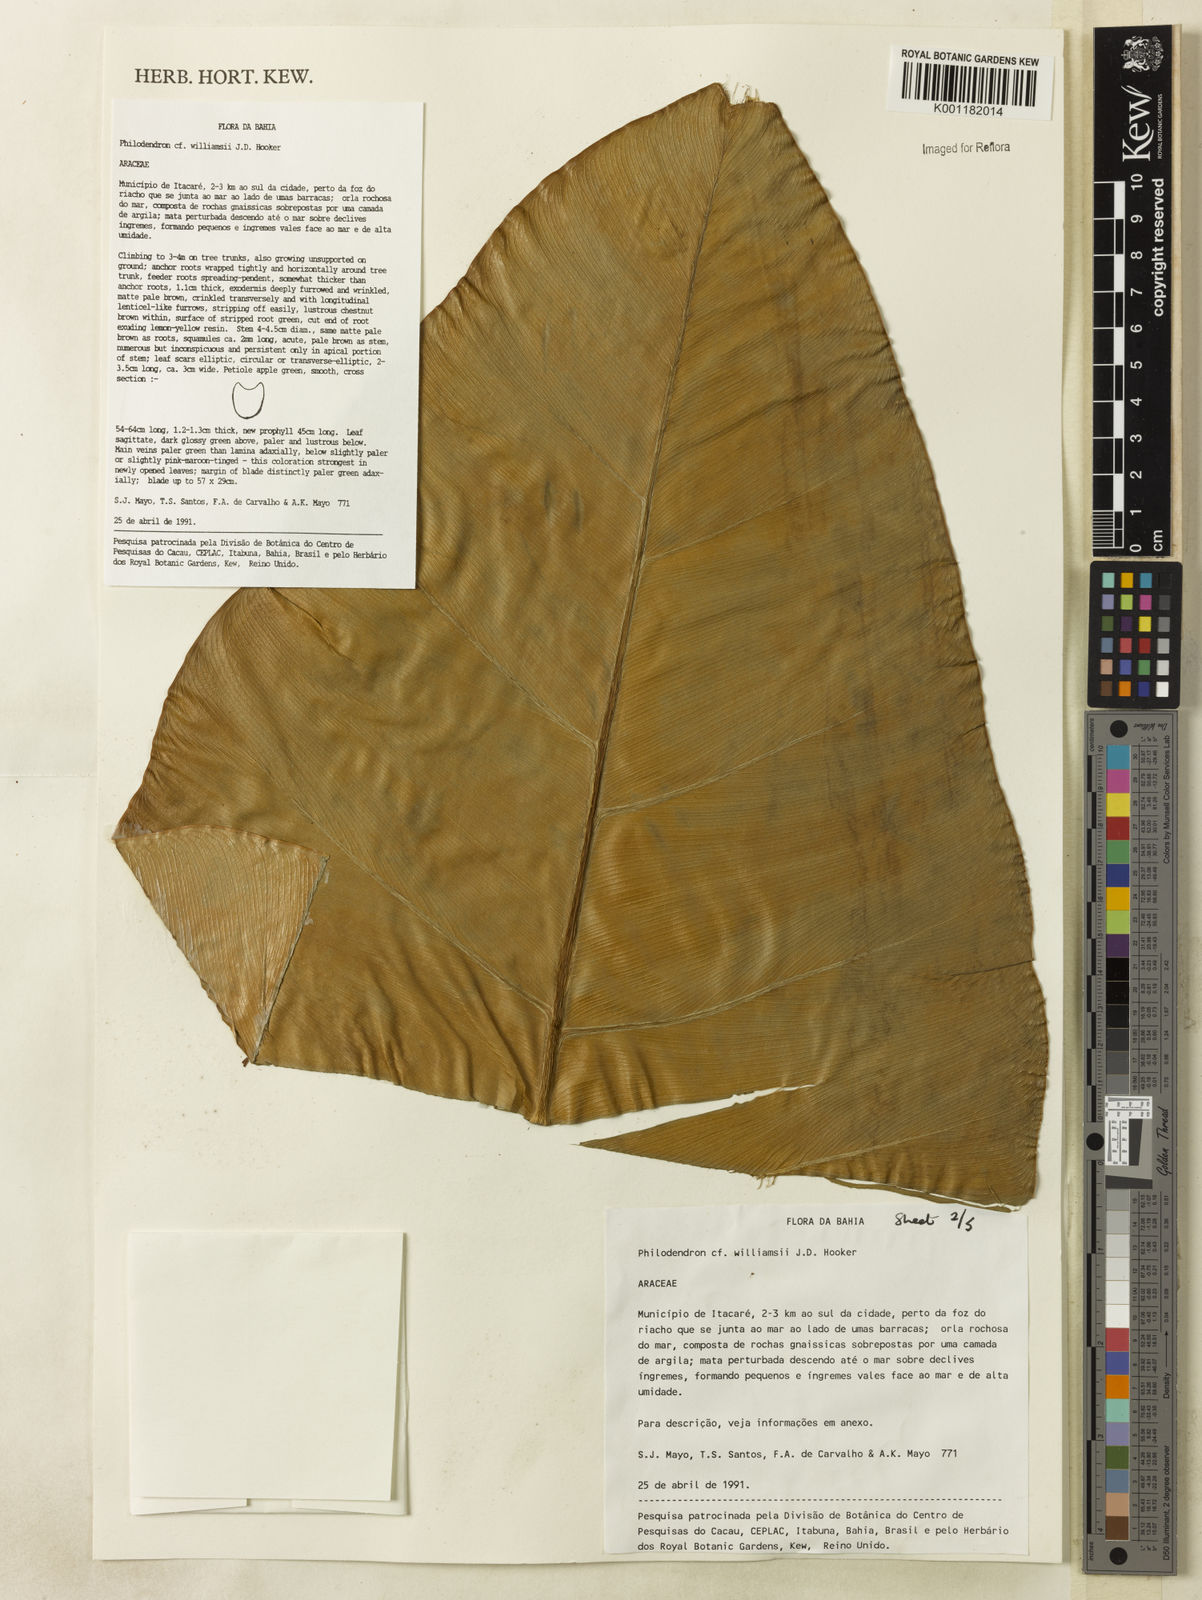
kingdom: Plantae
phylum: Tracheophyta
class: Liliopsida
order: Alismatales
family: Araceae
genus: Thaumatophyllum
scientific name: Thaumatophyllum williamsii
